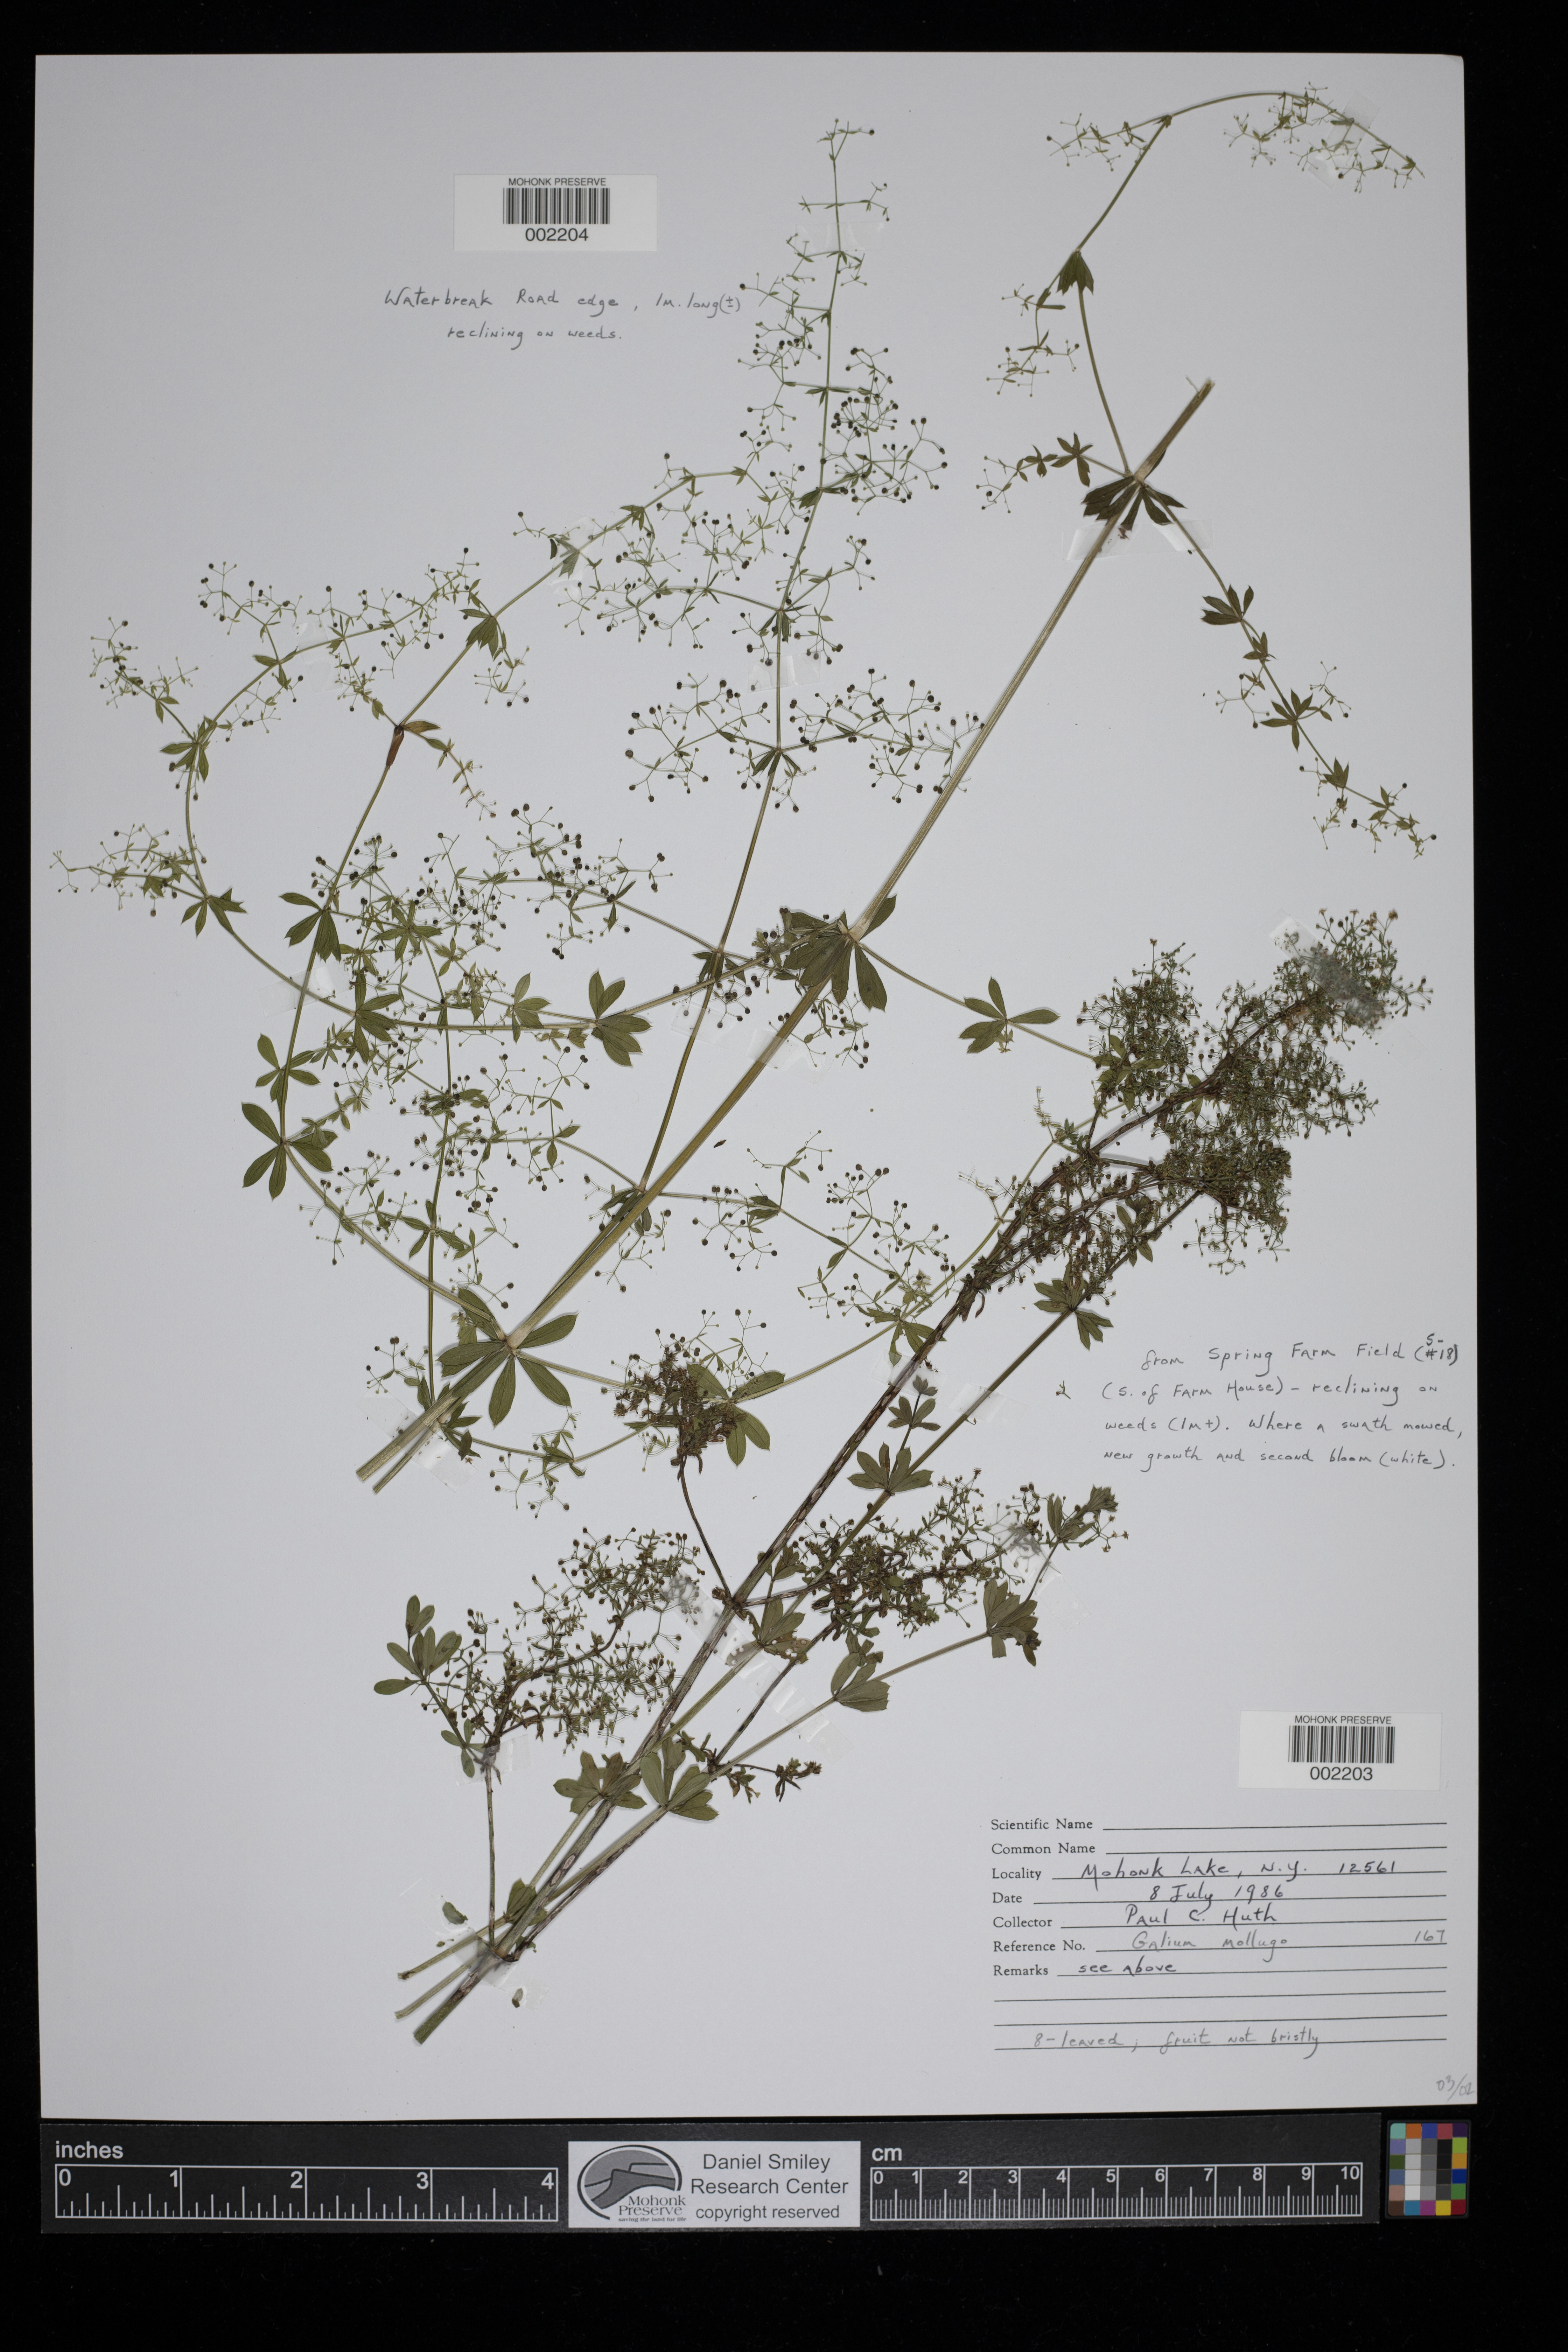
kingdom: Plantae
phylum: Tracheophyta
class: Magnoliopsida
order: Gentianales
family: Rubiaceae
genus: Galium
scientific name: Galium mollugo
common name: Hedge bedstraw
